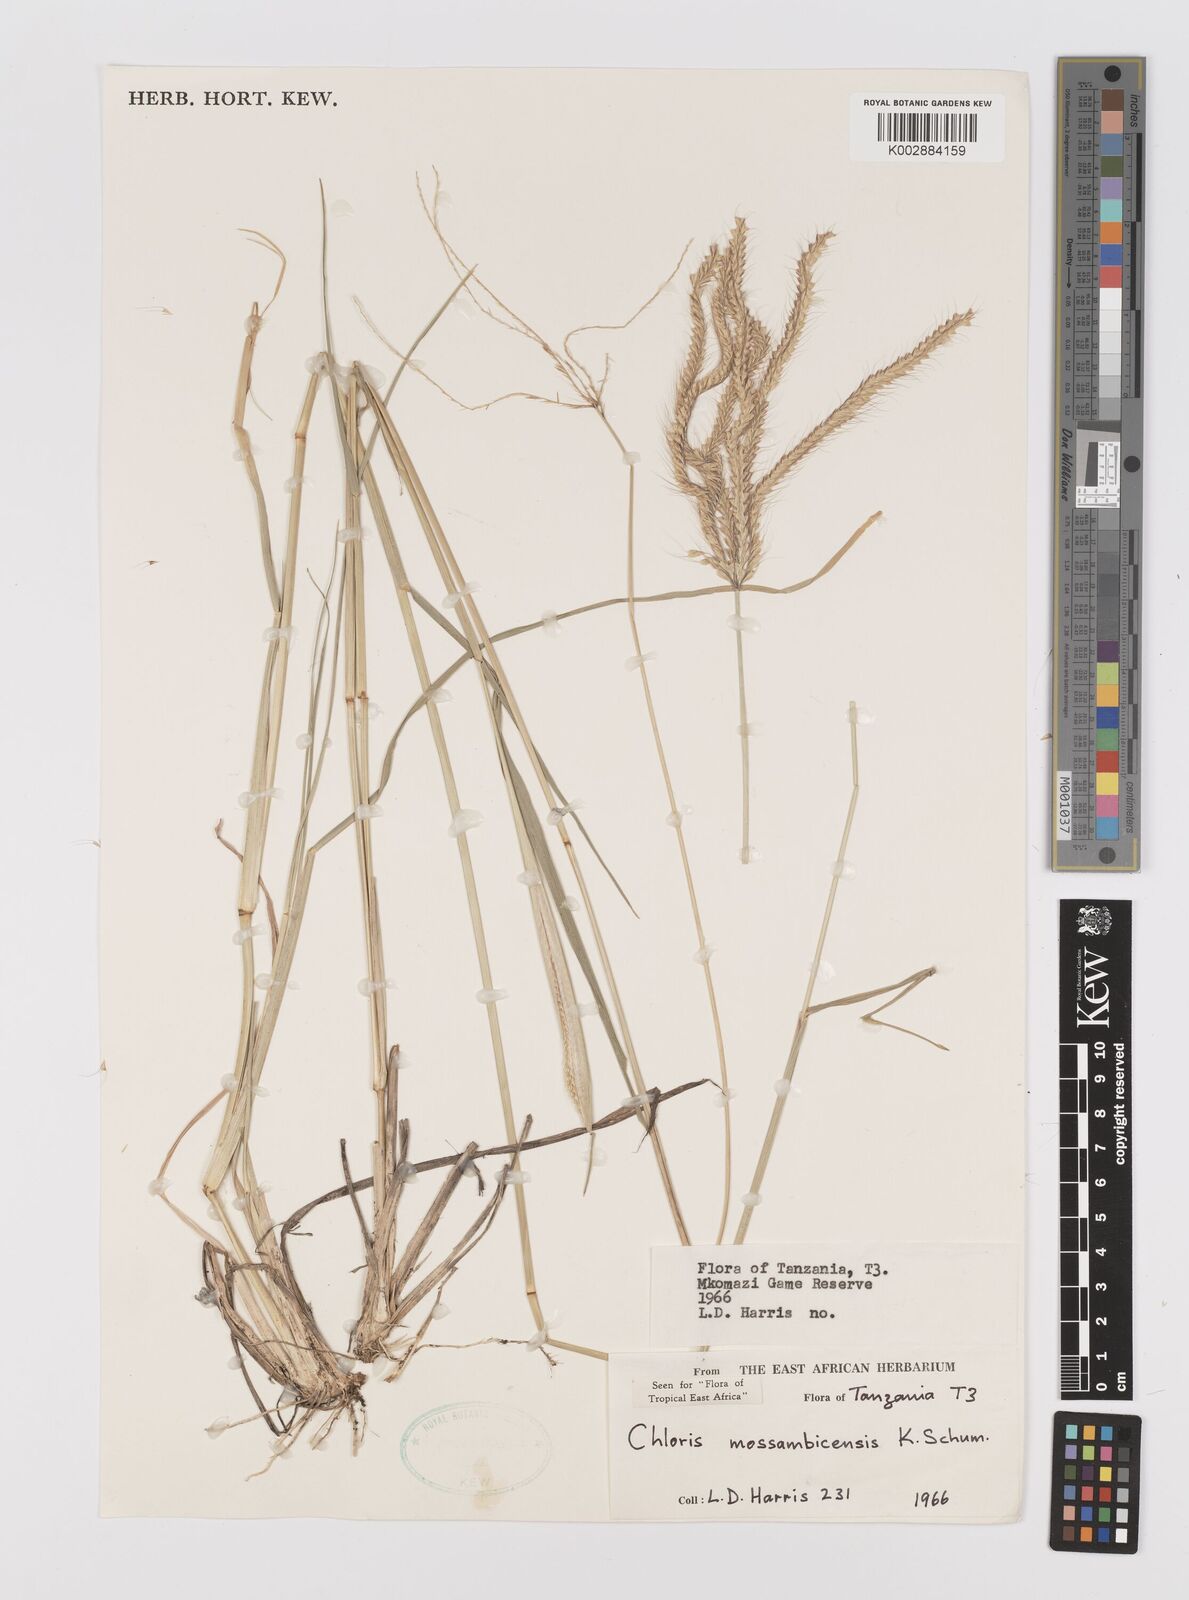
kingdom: Plantae
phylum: Tracheophyta
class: Liliopsida
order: Poales
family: Poaceae
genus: Chloris
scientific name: Chloris mossambicensis
